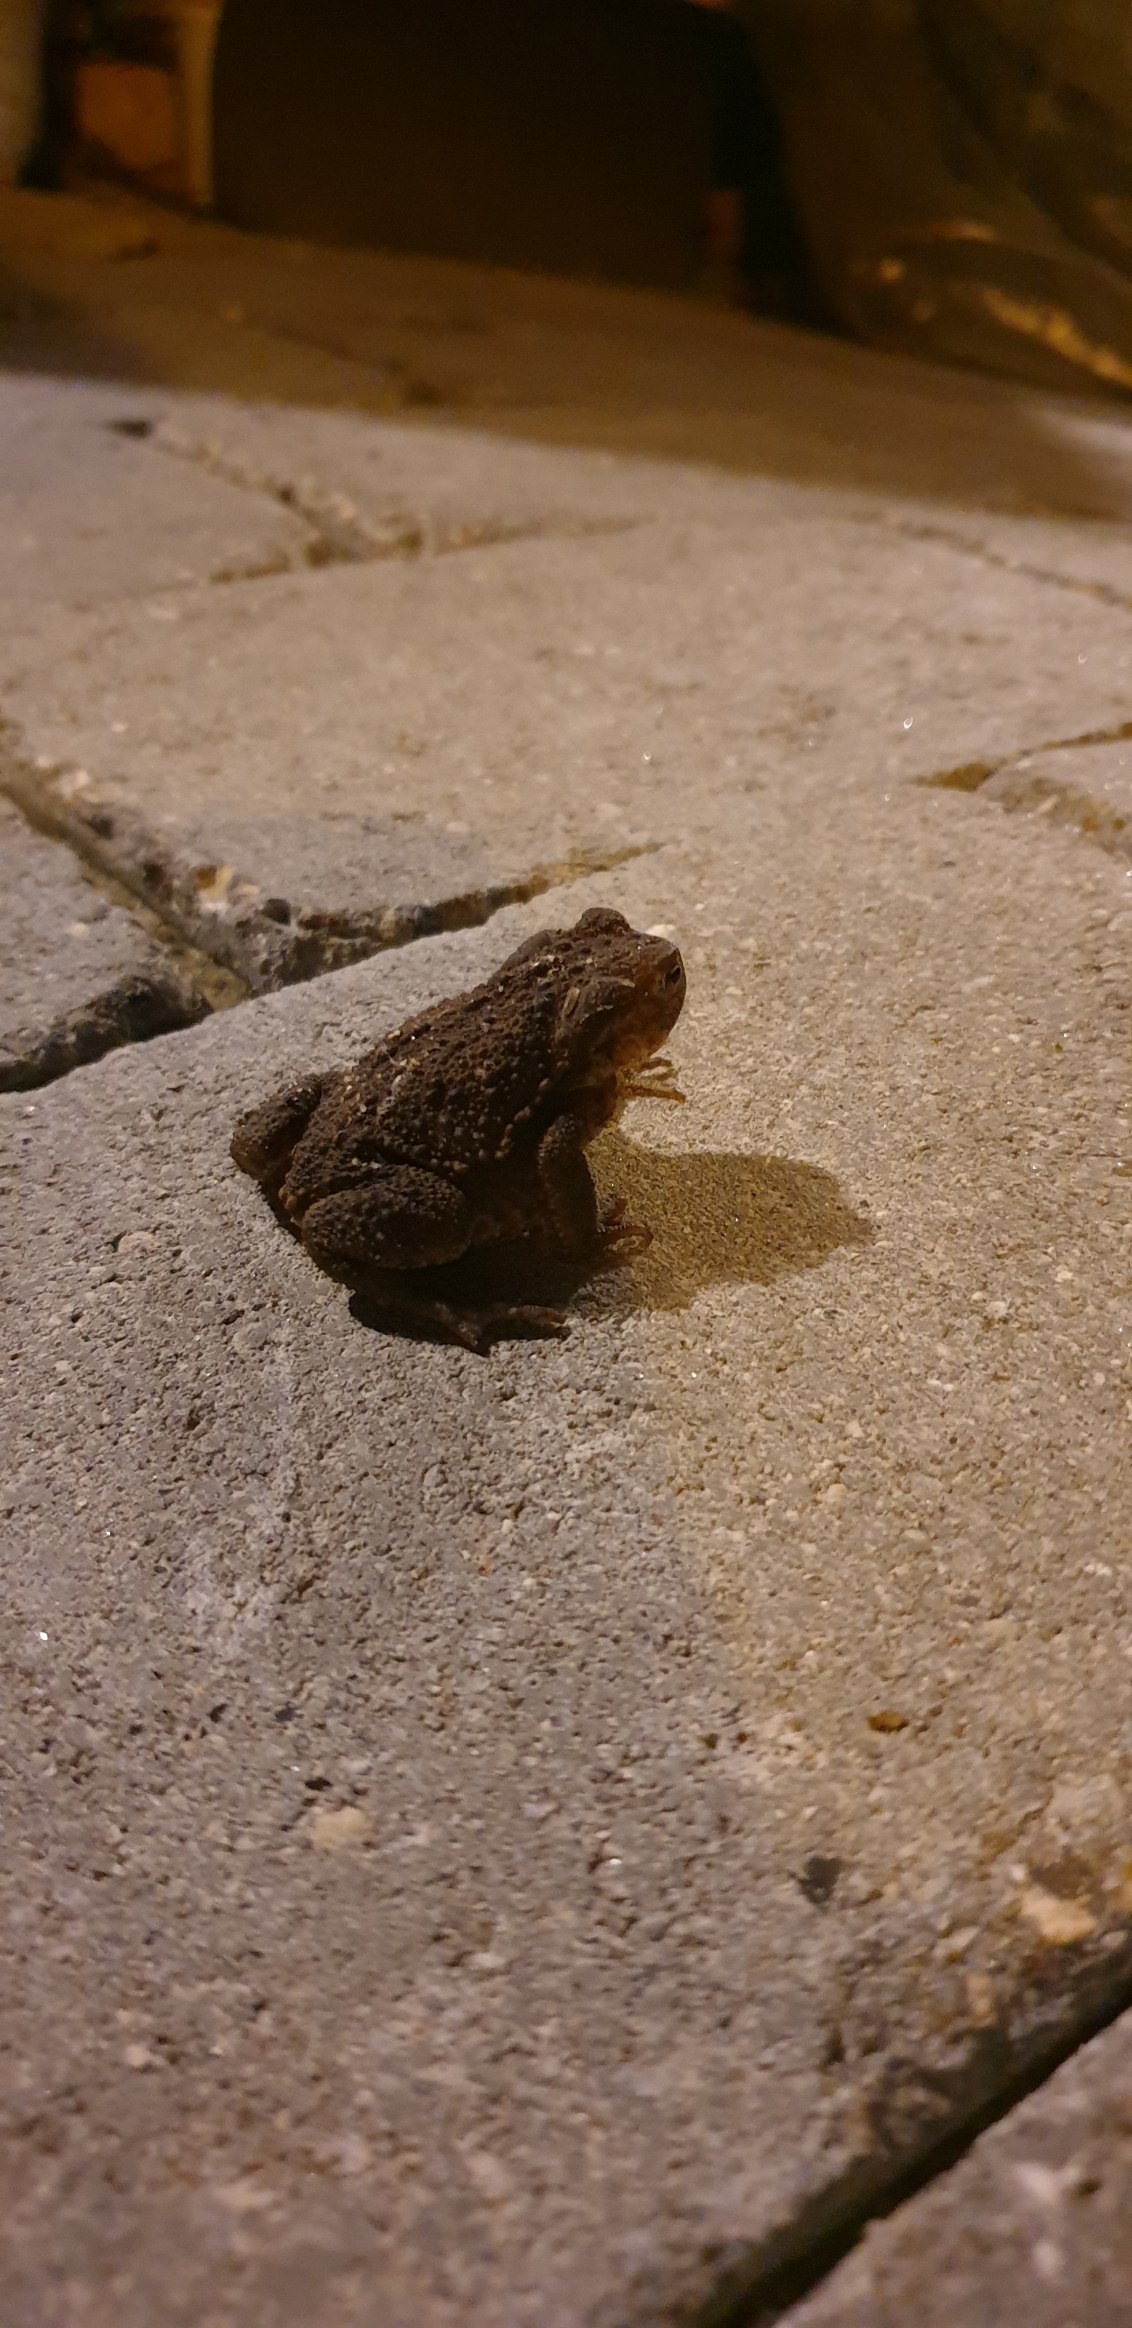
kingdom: Animalia
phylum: Chordata
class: Amphibia
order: Anura
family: Bufonidae
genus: Bufo
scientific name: Bufo bufo
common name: Skrubtudse
